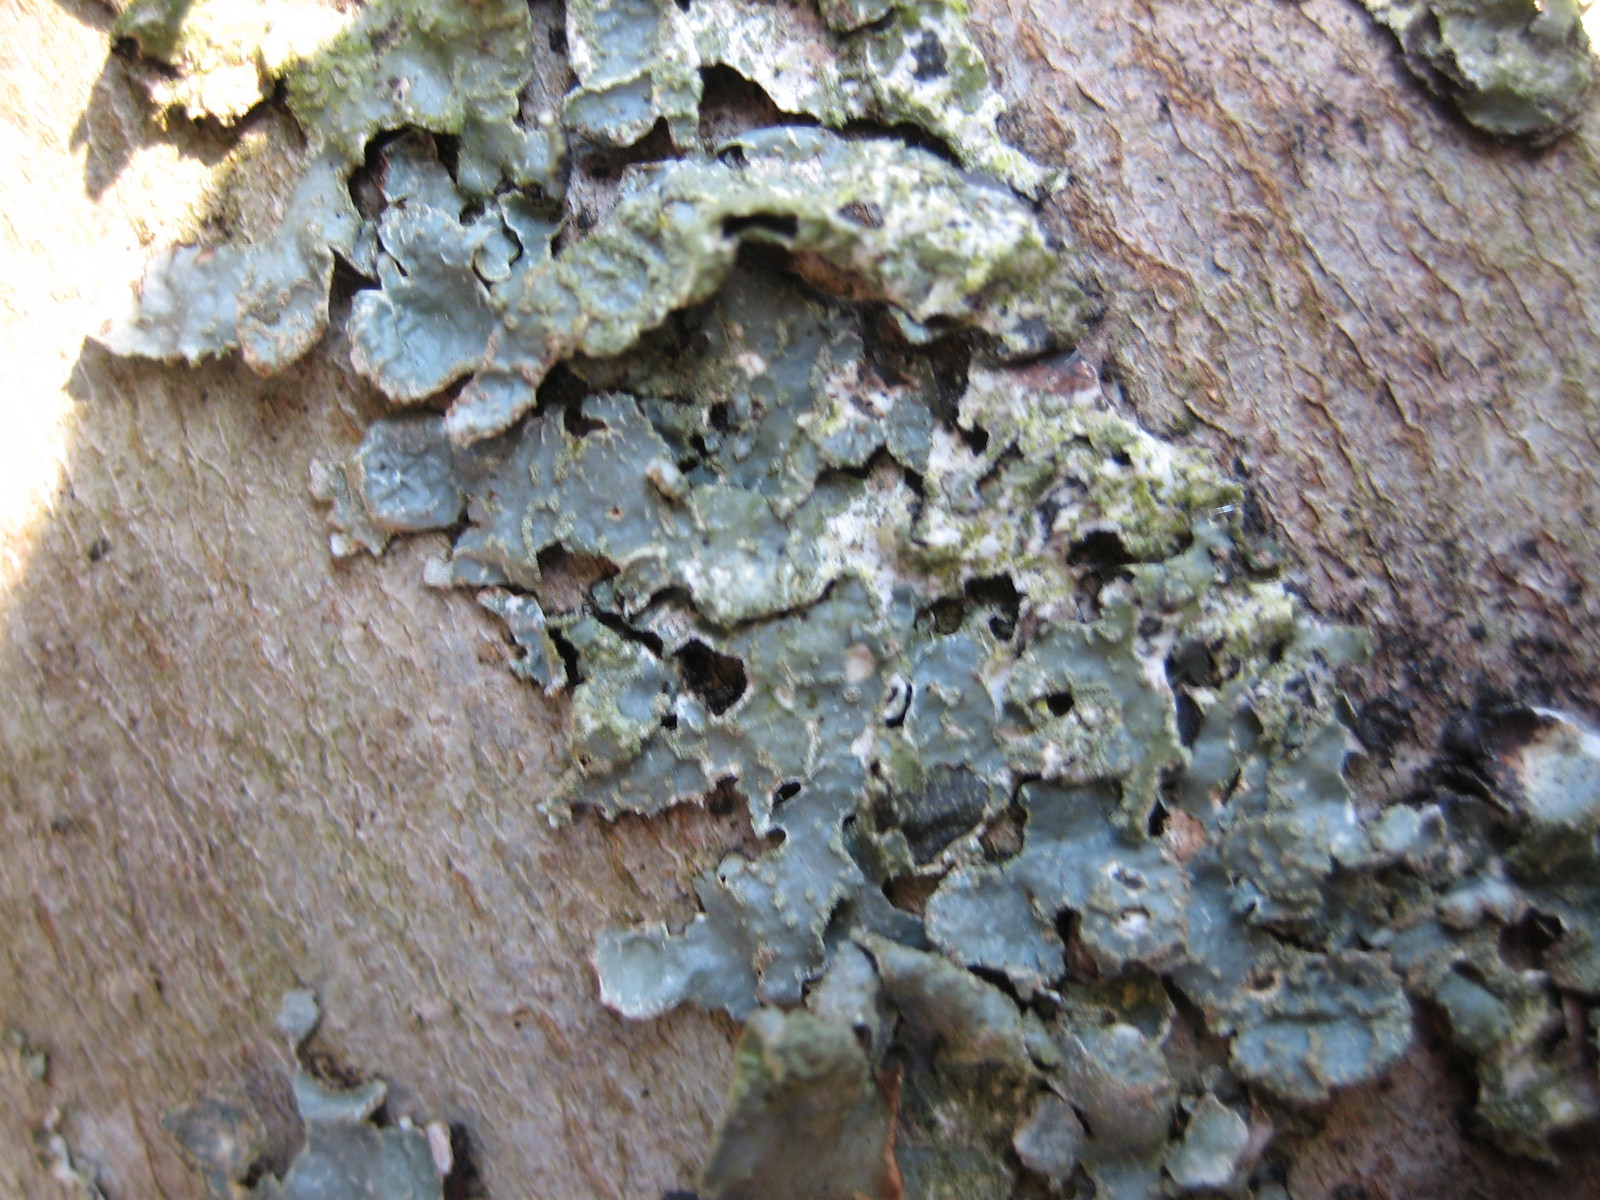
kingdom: Fungi
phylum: Ascomycota
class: Lecanoromycetes
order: Lecanorales
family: Parmeliaceae
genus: Parmelia
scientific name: Parmelia sulcata
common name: rynket skållav
